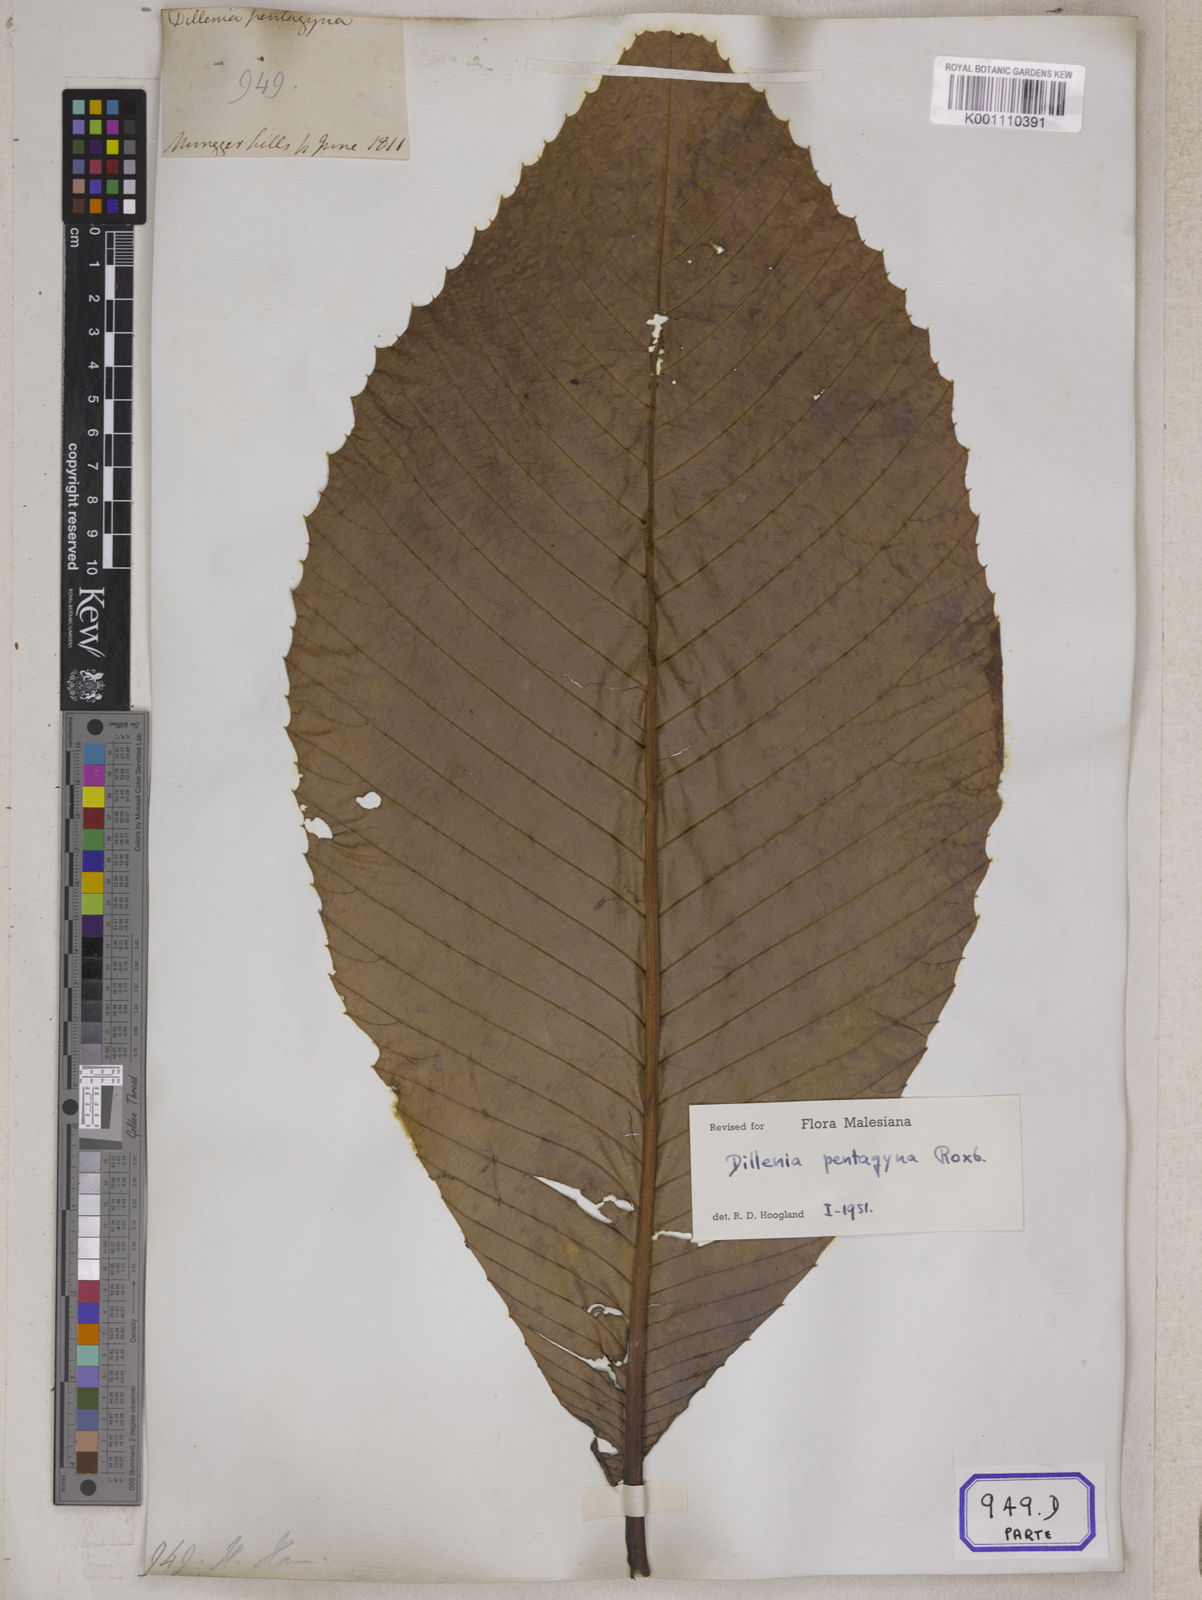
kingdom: Plantae
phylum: Tracheophyta
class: Magnoliopsida
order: Dilleniales
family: Dilleniaceae
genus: Dillenia
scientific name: Dillenia pentagyna
